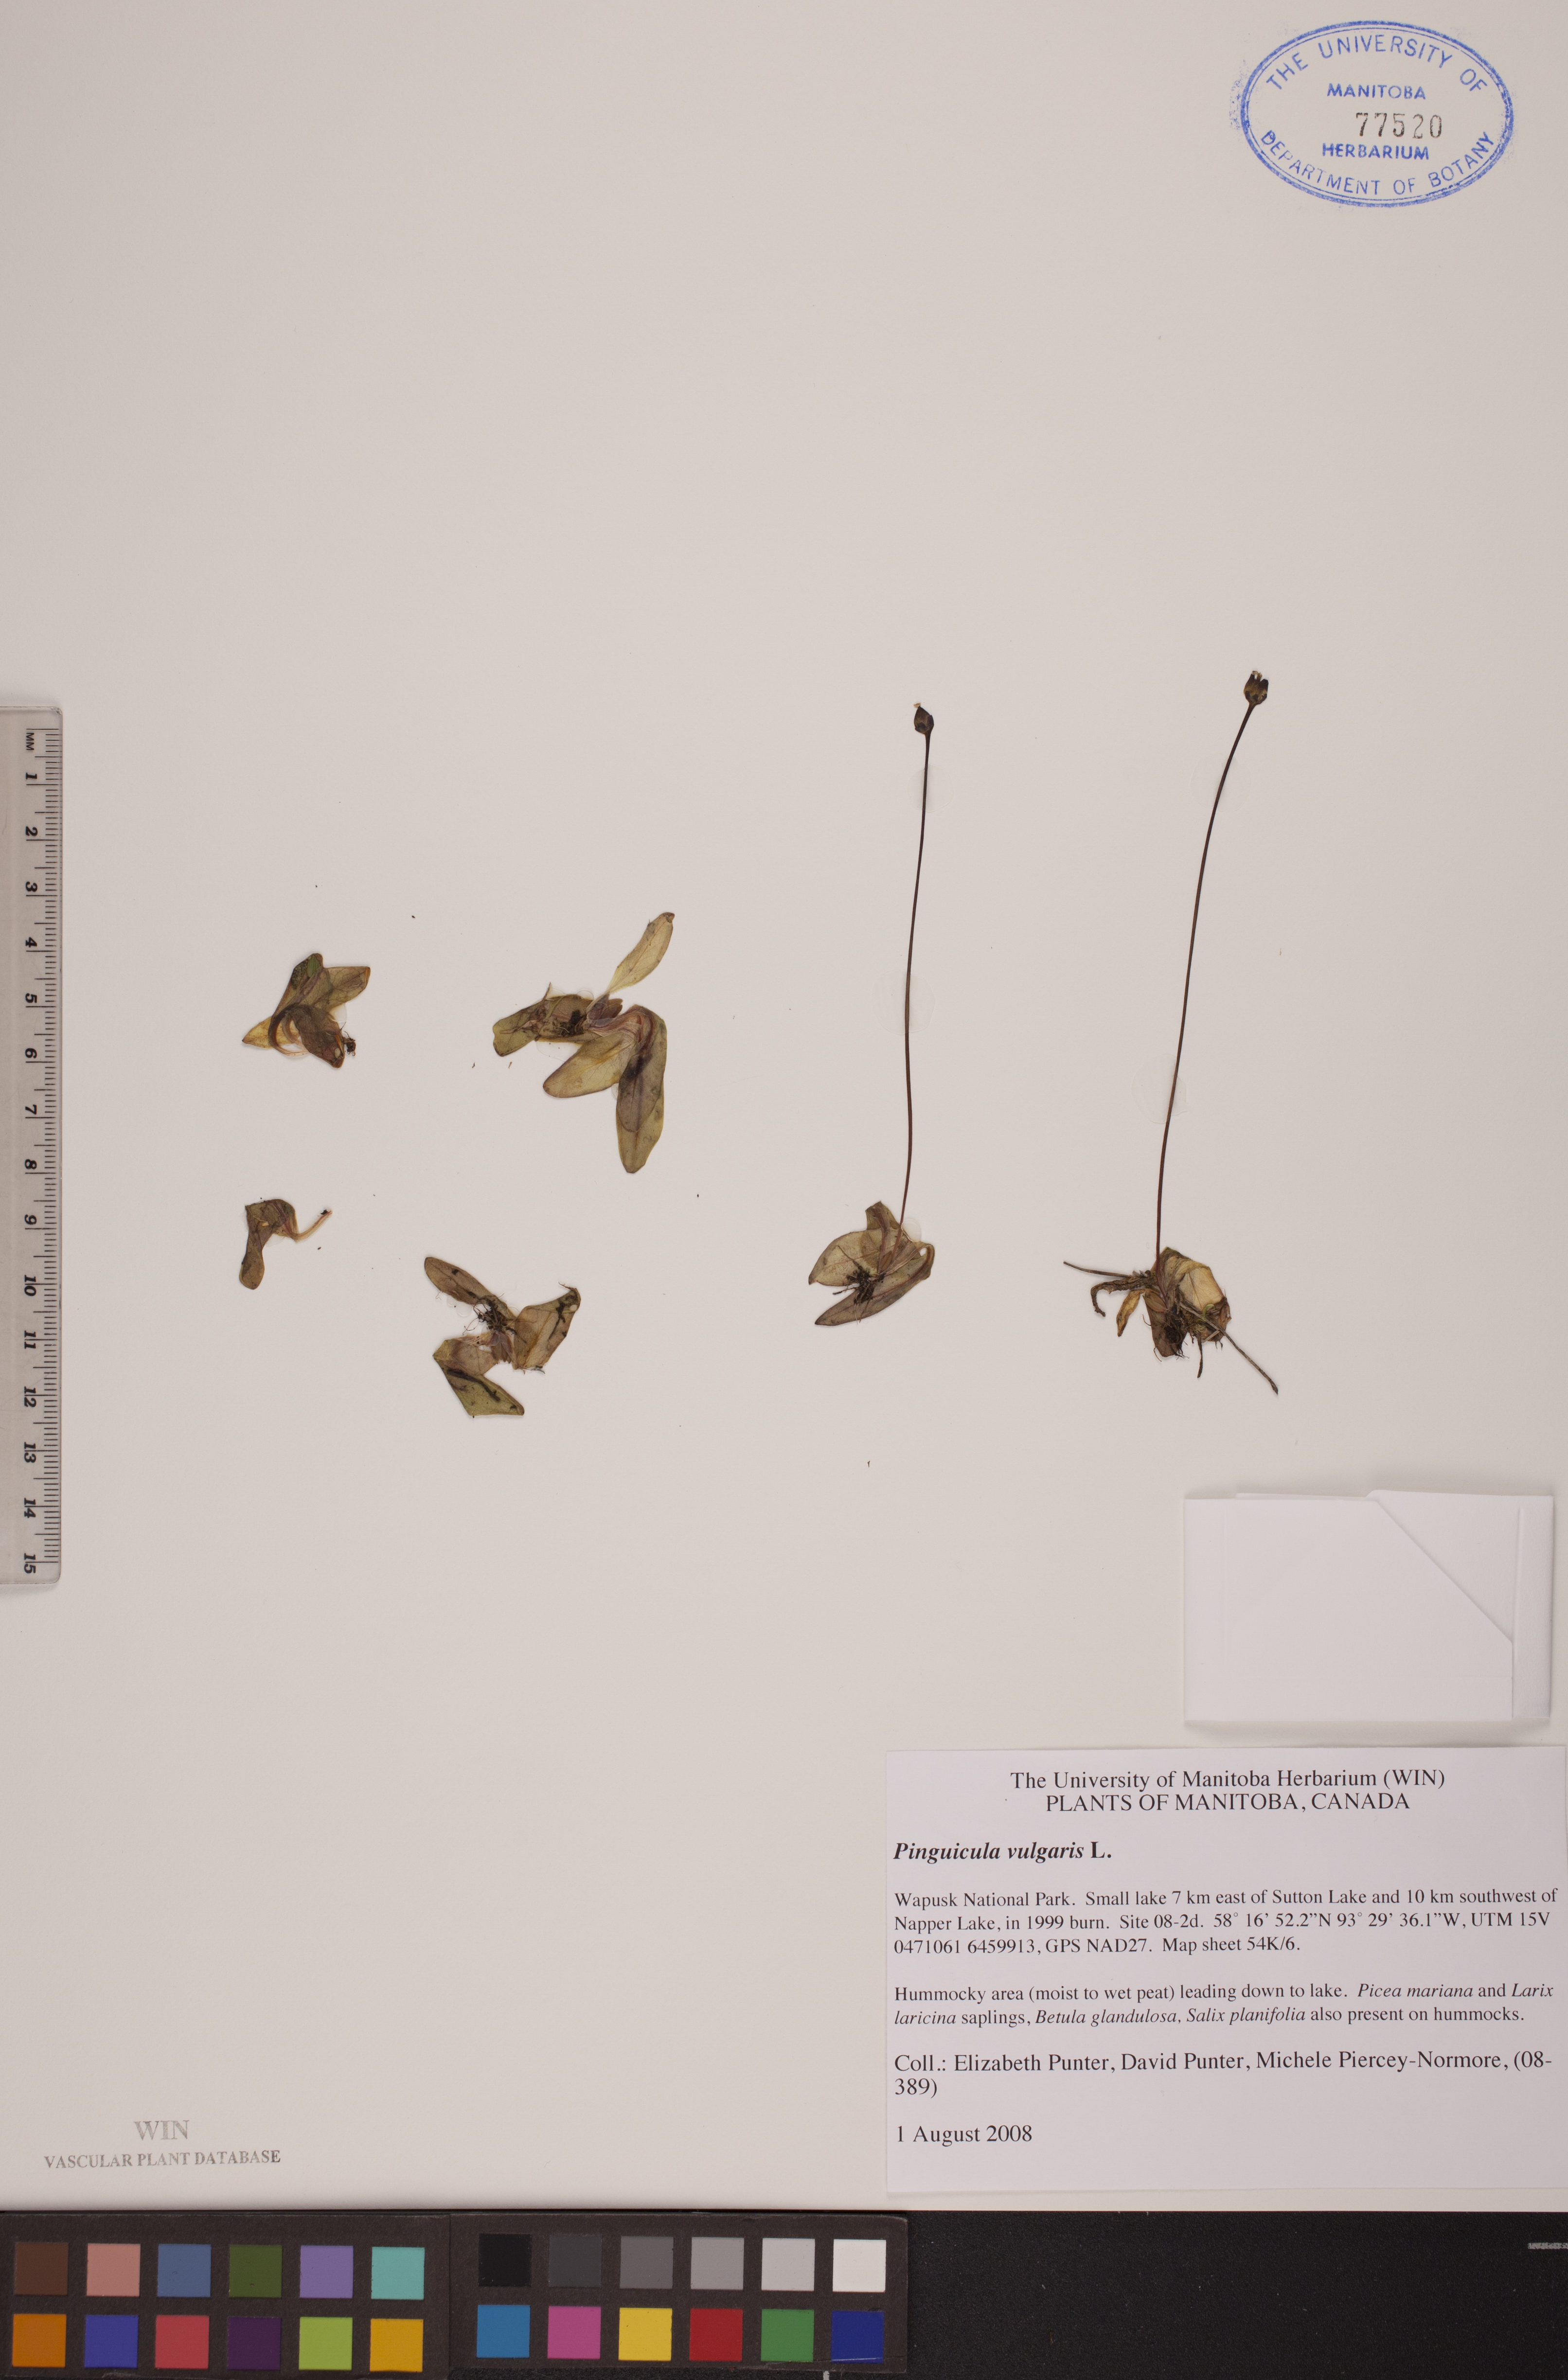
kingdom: Plantae
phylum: Tracheophyta
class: Magnoliopsida
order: Lamiales
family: Lentibulariaceae
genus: Pinguicula
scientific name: Pinguicula vulgaris
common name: Common butterwort
